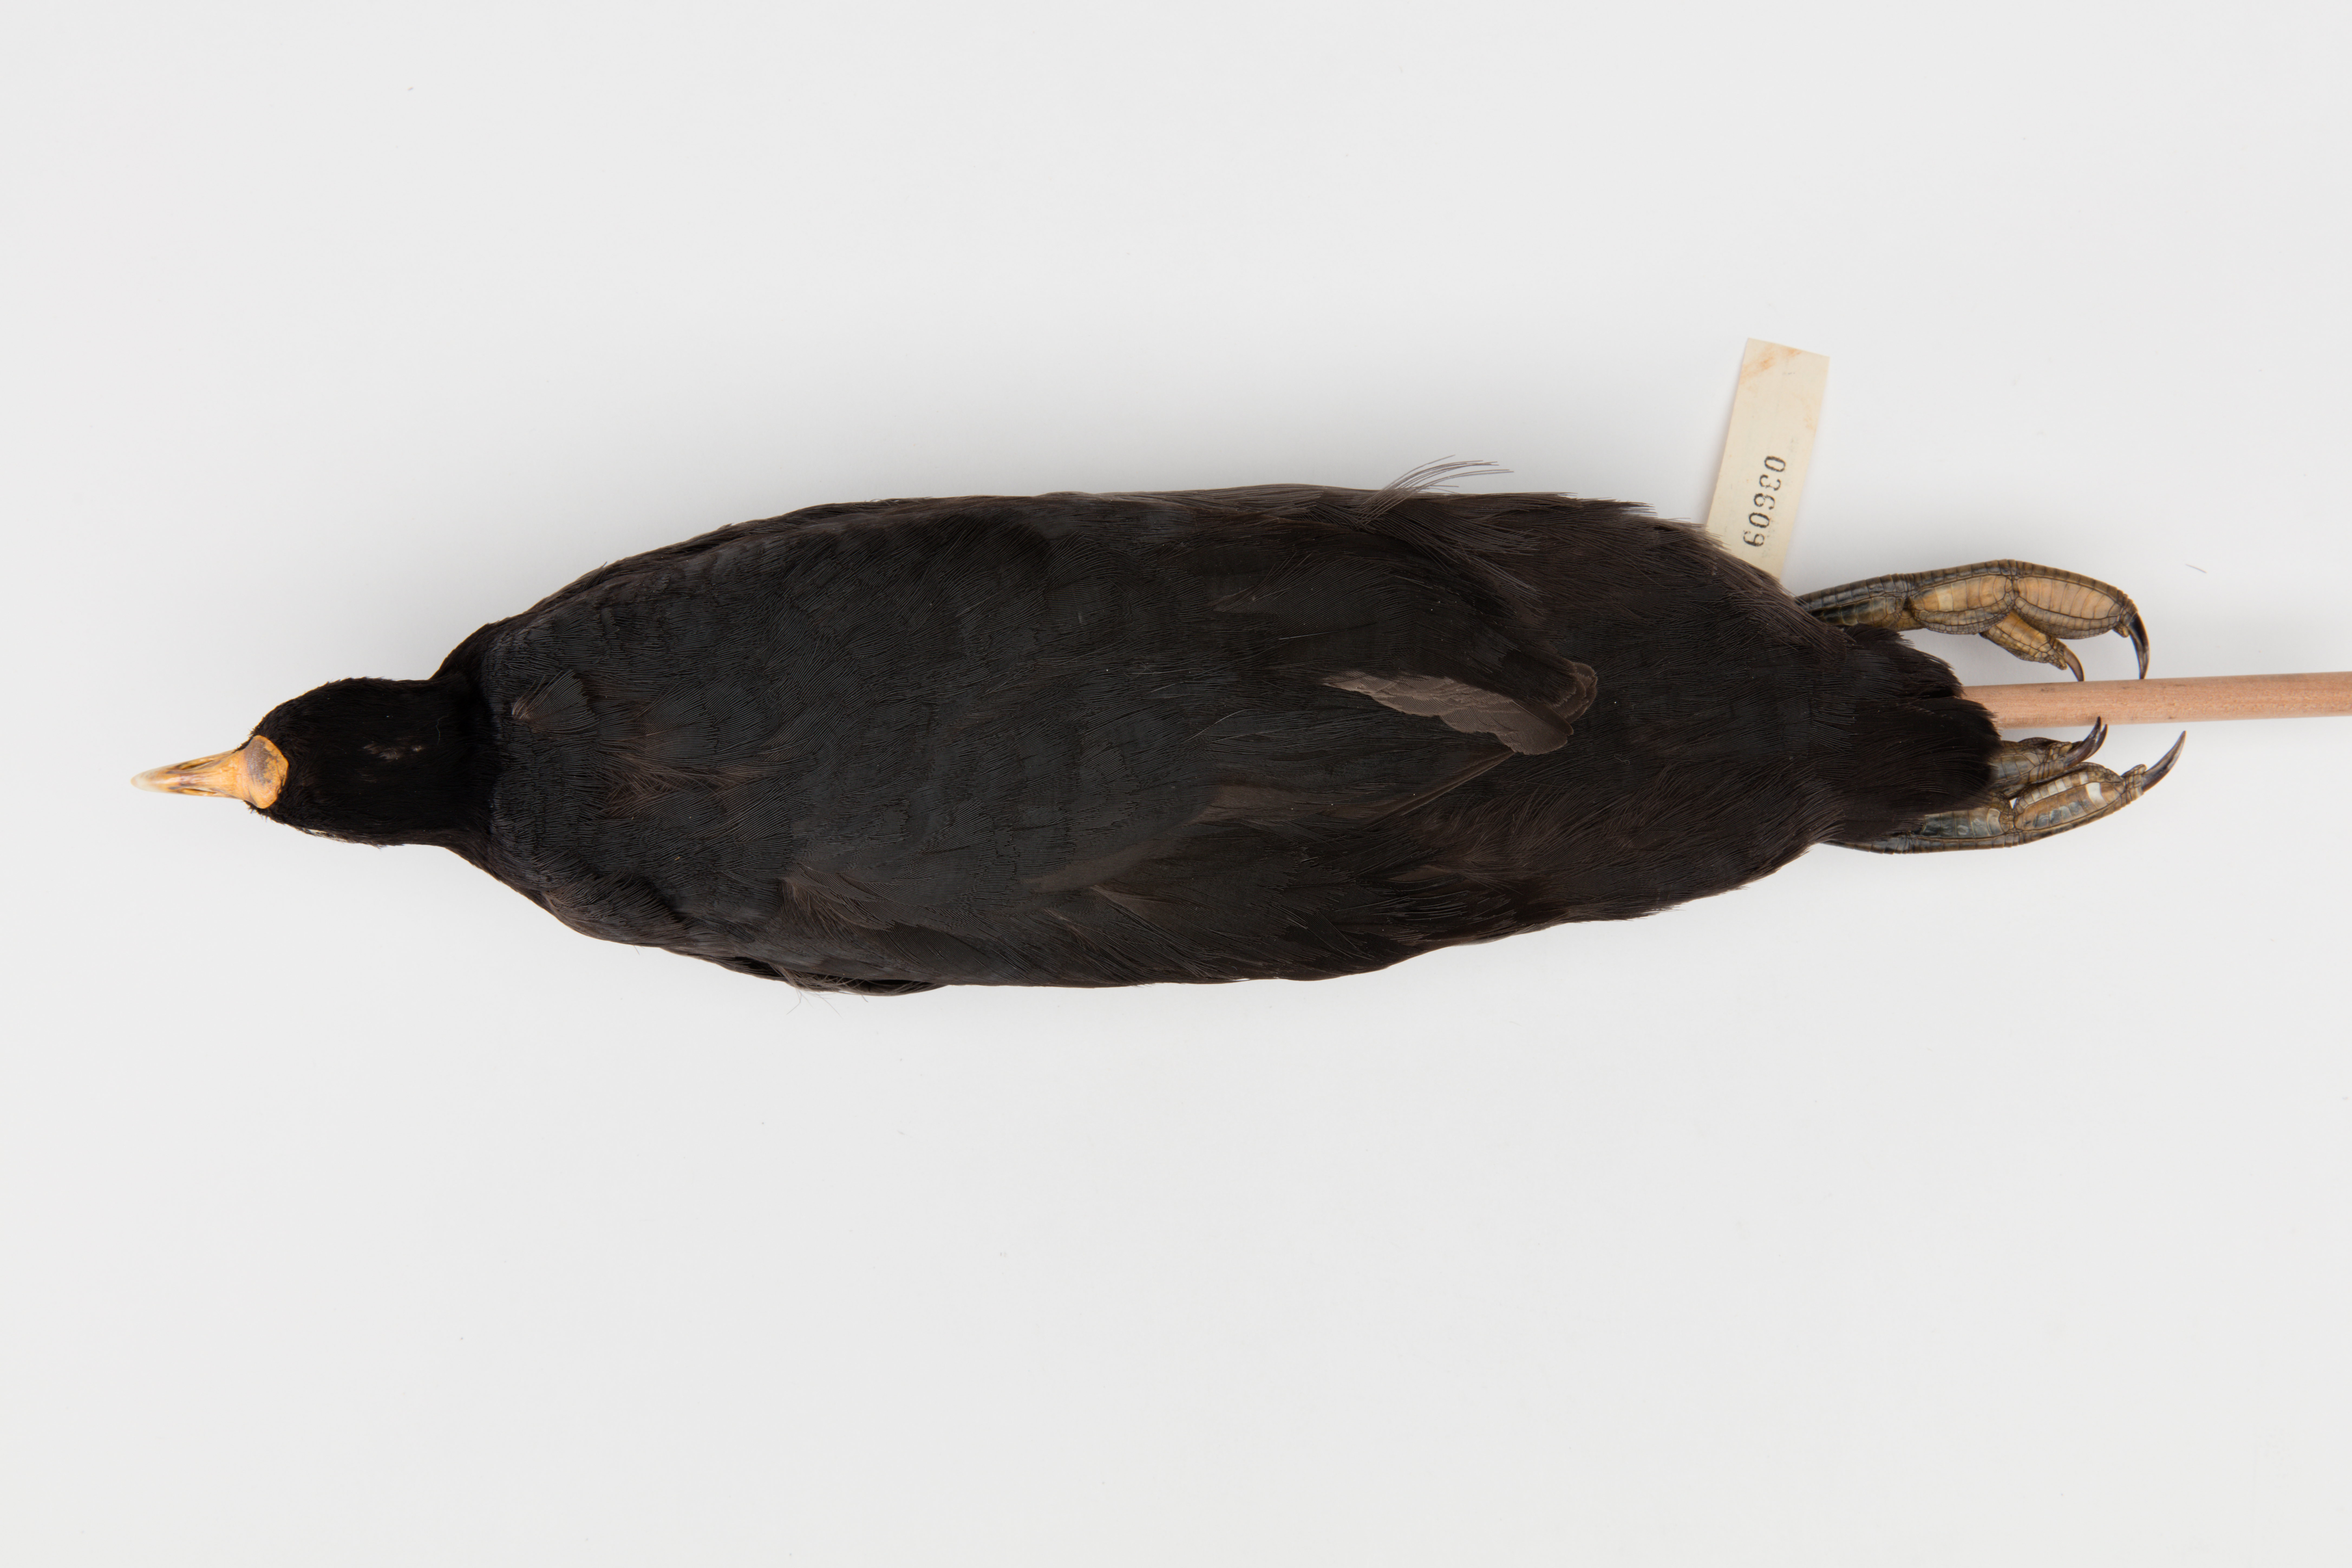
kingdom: Animalia
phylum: Chordata
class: Aves
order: Gruiformes
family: Rallidae
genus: Fulica
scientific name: Fulica atra
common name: Eurasian coot
